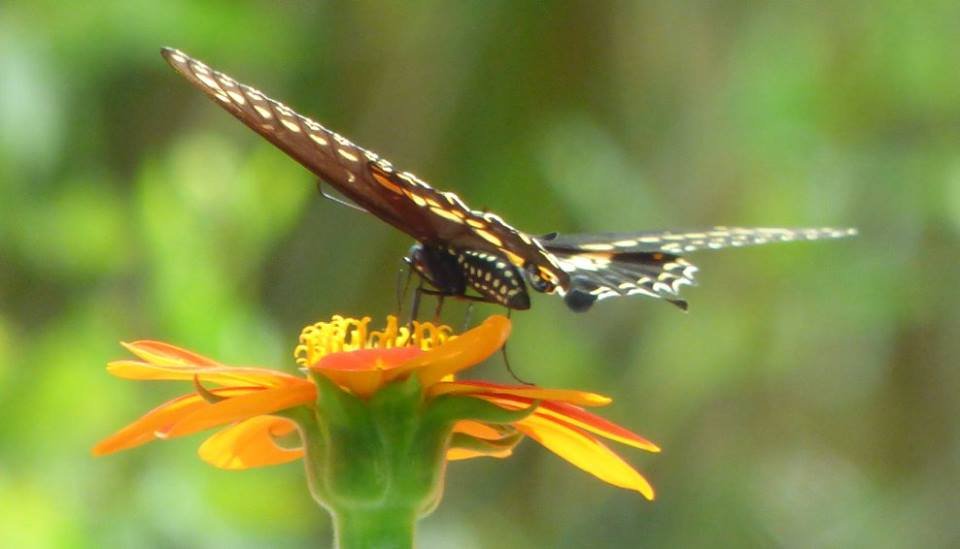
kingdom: Animalia
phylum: Arthropoda
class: Insecta
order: Lepidoptera
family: Papilionidae
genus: Papilio
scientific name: Papilio polyxenes
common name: Black Swallowtail
